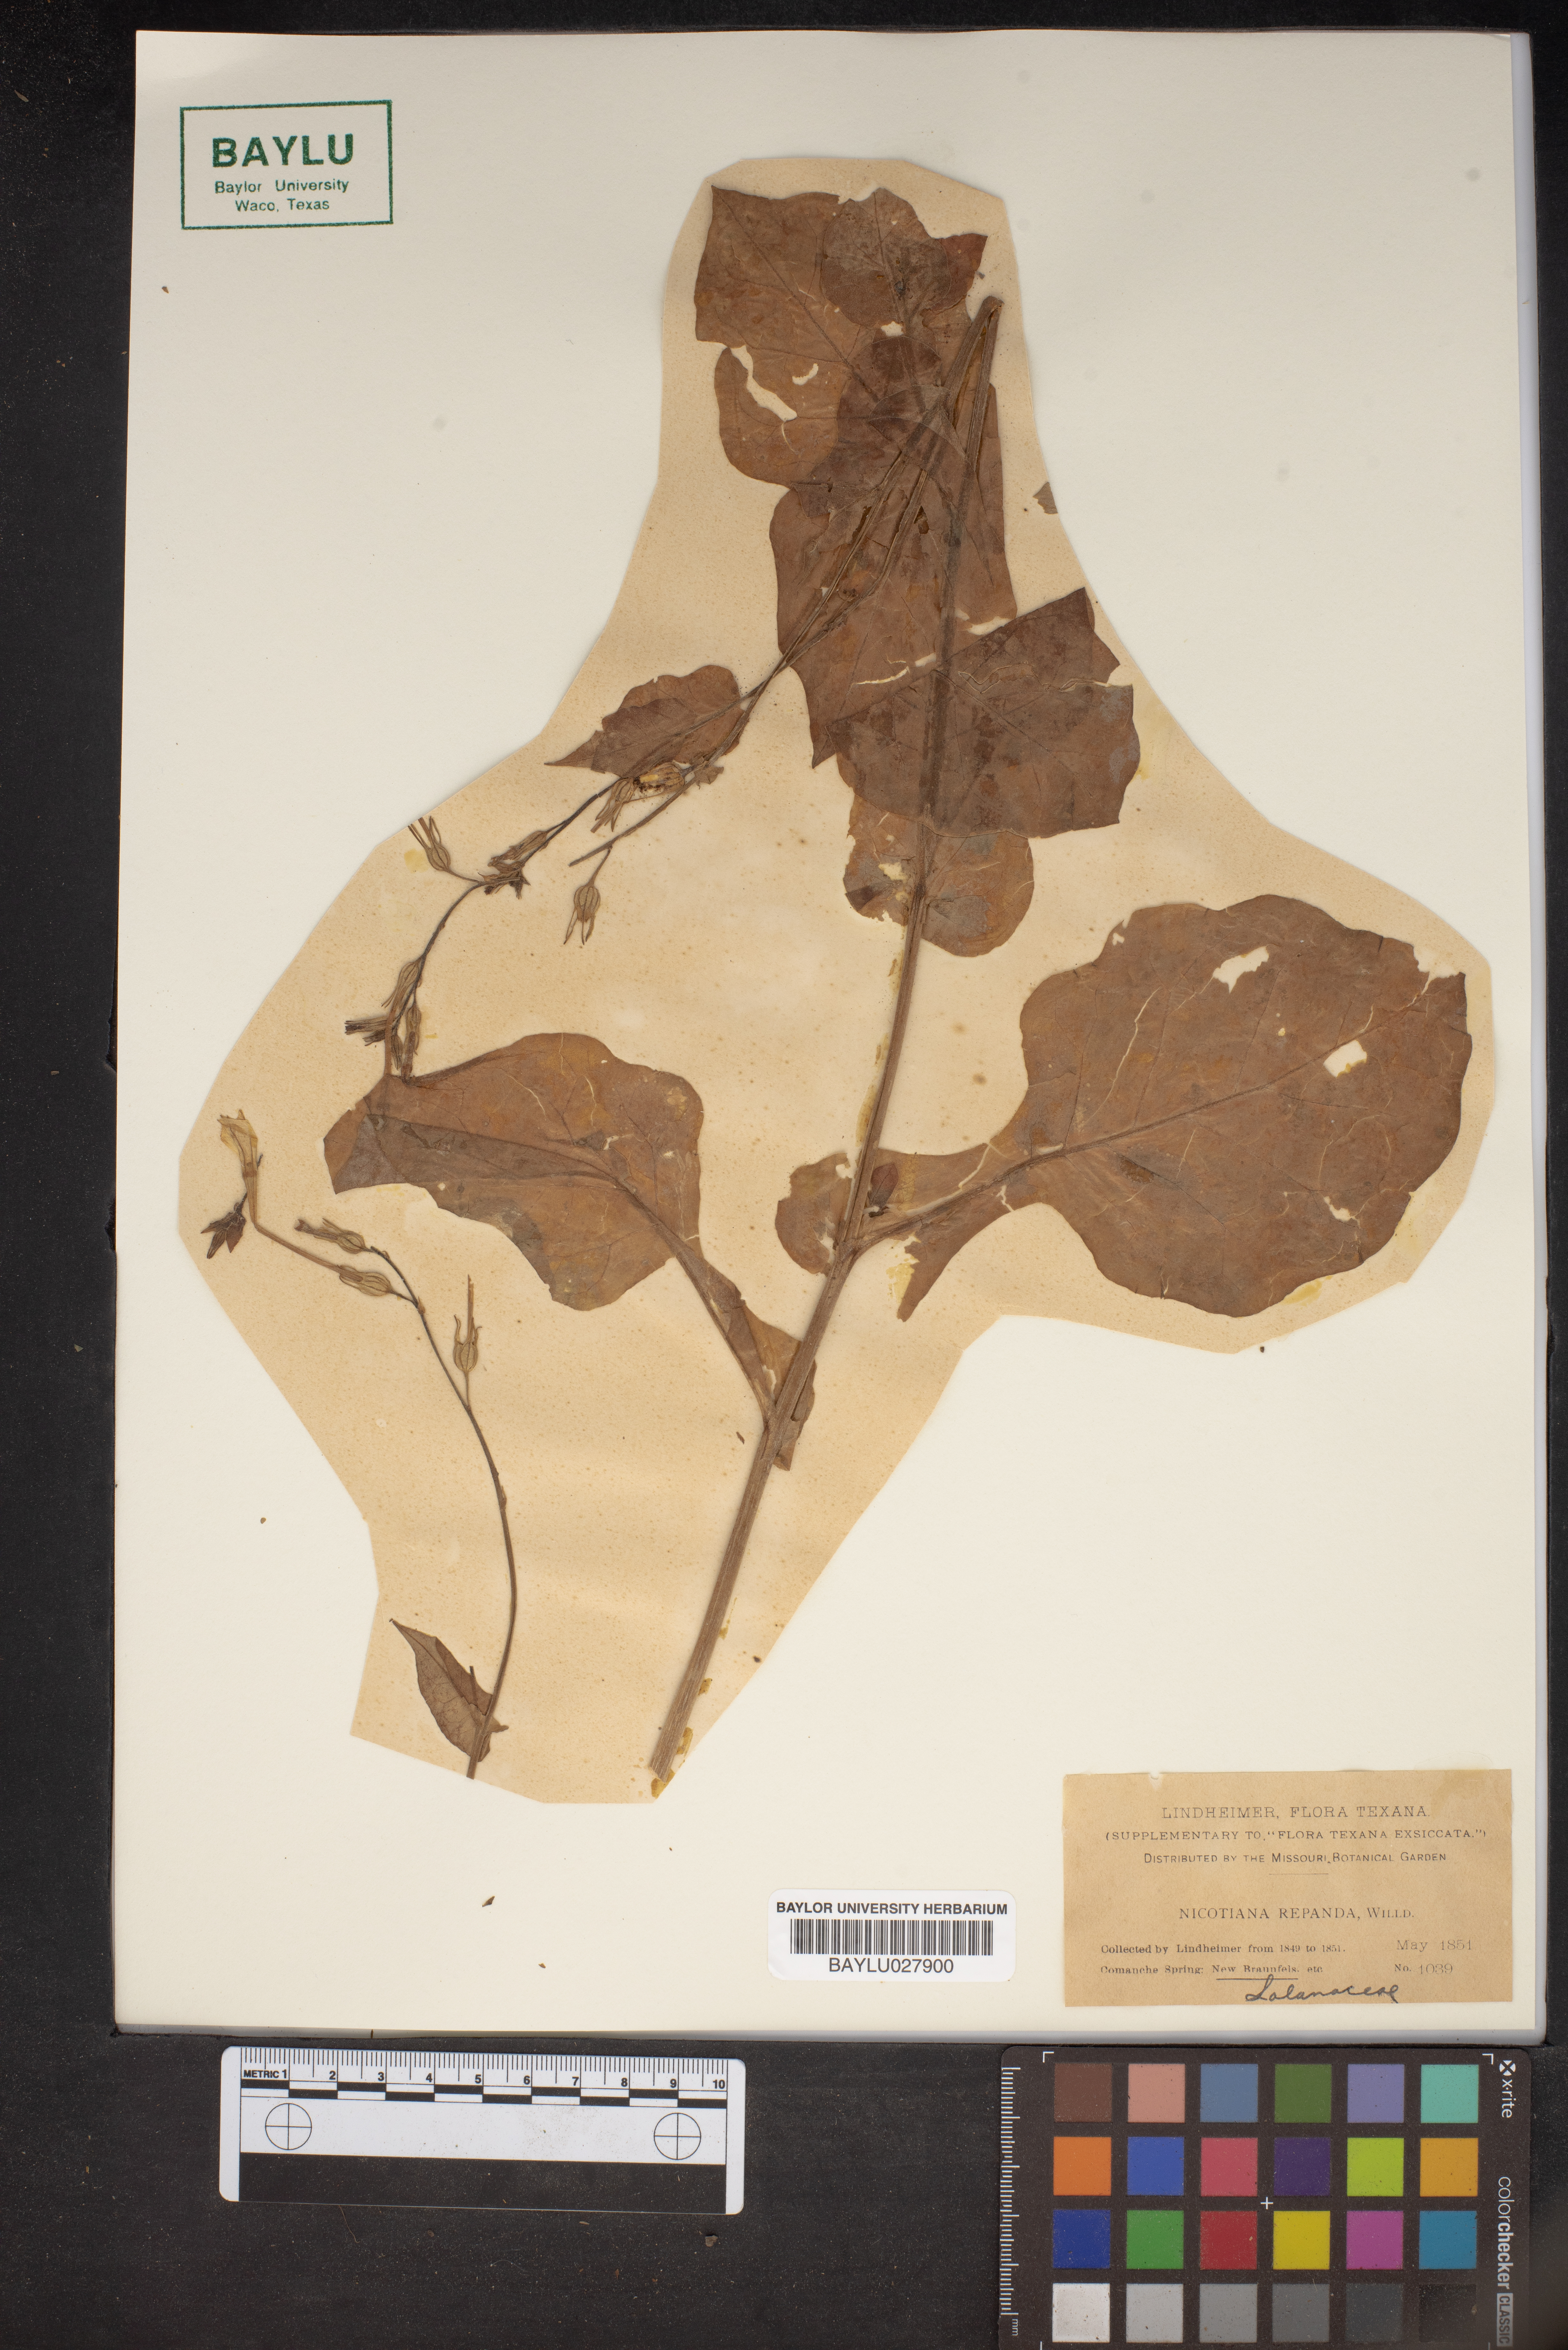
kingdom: Plantae
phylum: Tracheophyta
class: Magnoliopsida
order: Solanales
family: Solanaceae
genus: Nicotiana
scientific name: Nicotiana repanda
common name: Fiddle-leaf tobacco
